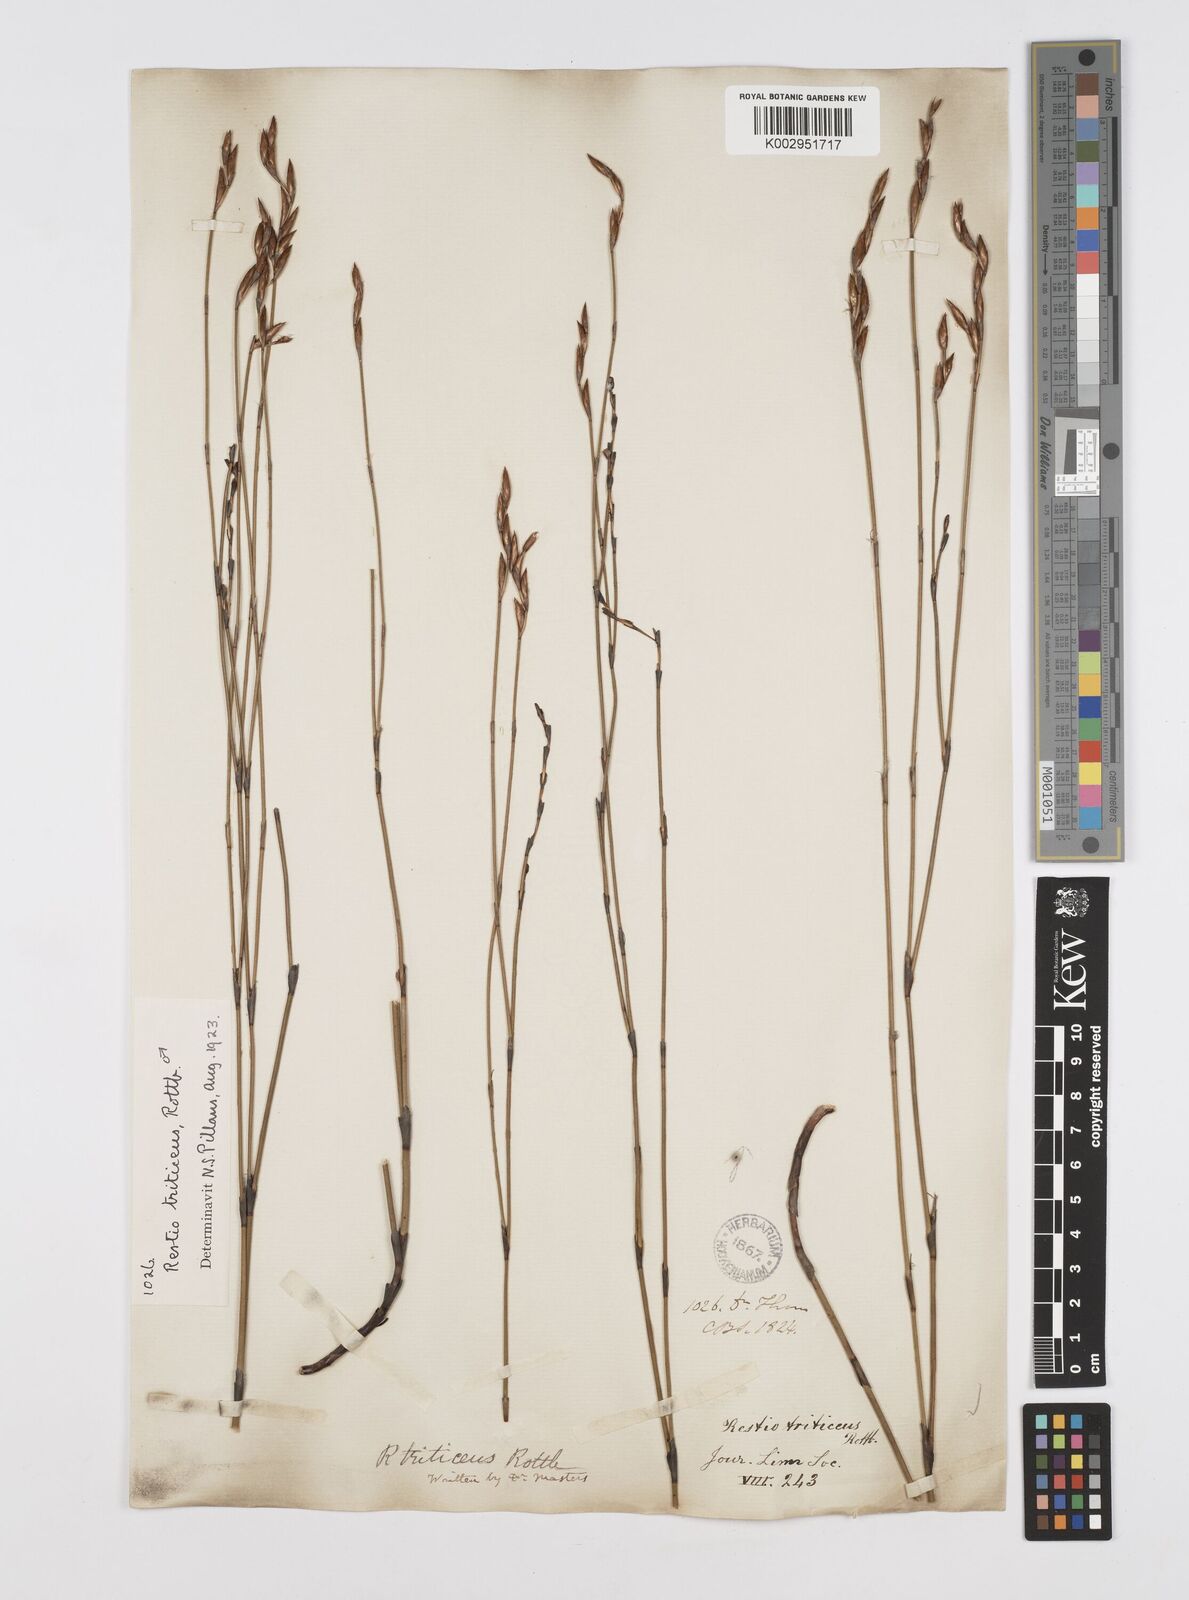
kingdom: Plantae
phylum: Tracheophyta
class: Liliopsida
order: Poales
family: Restionaceae
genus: Restio
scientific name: Restio triticeus
